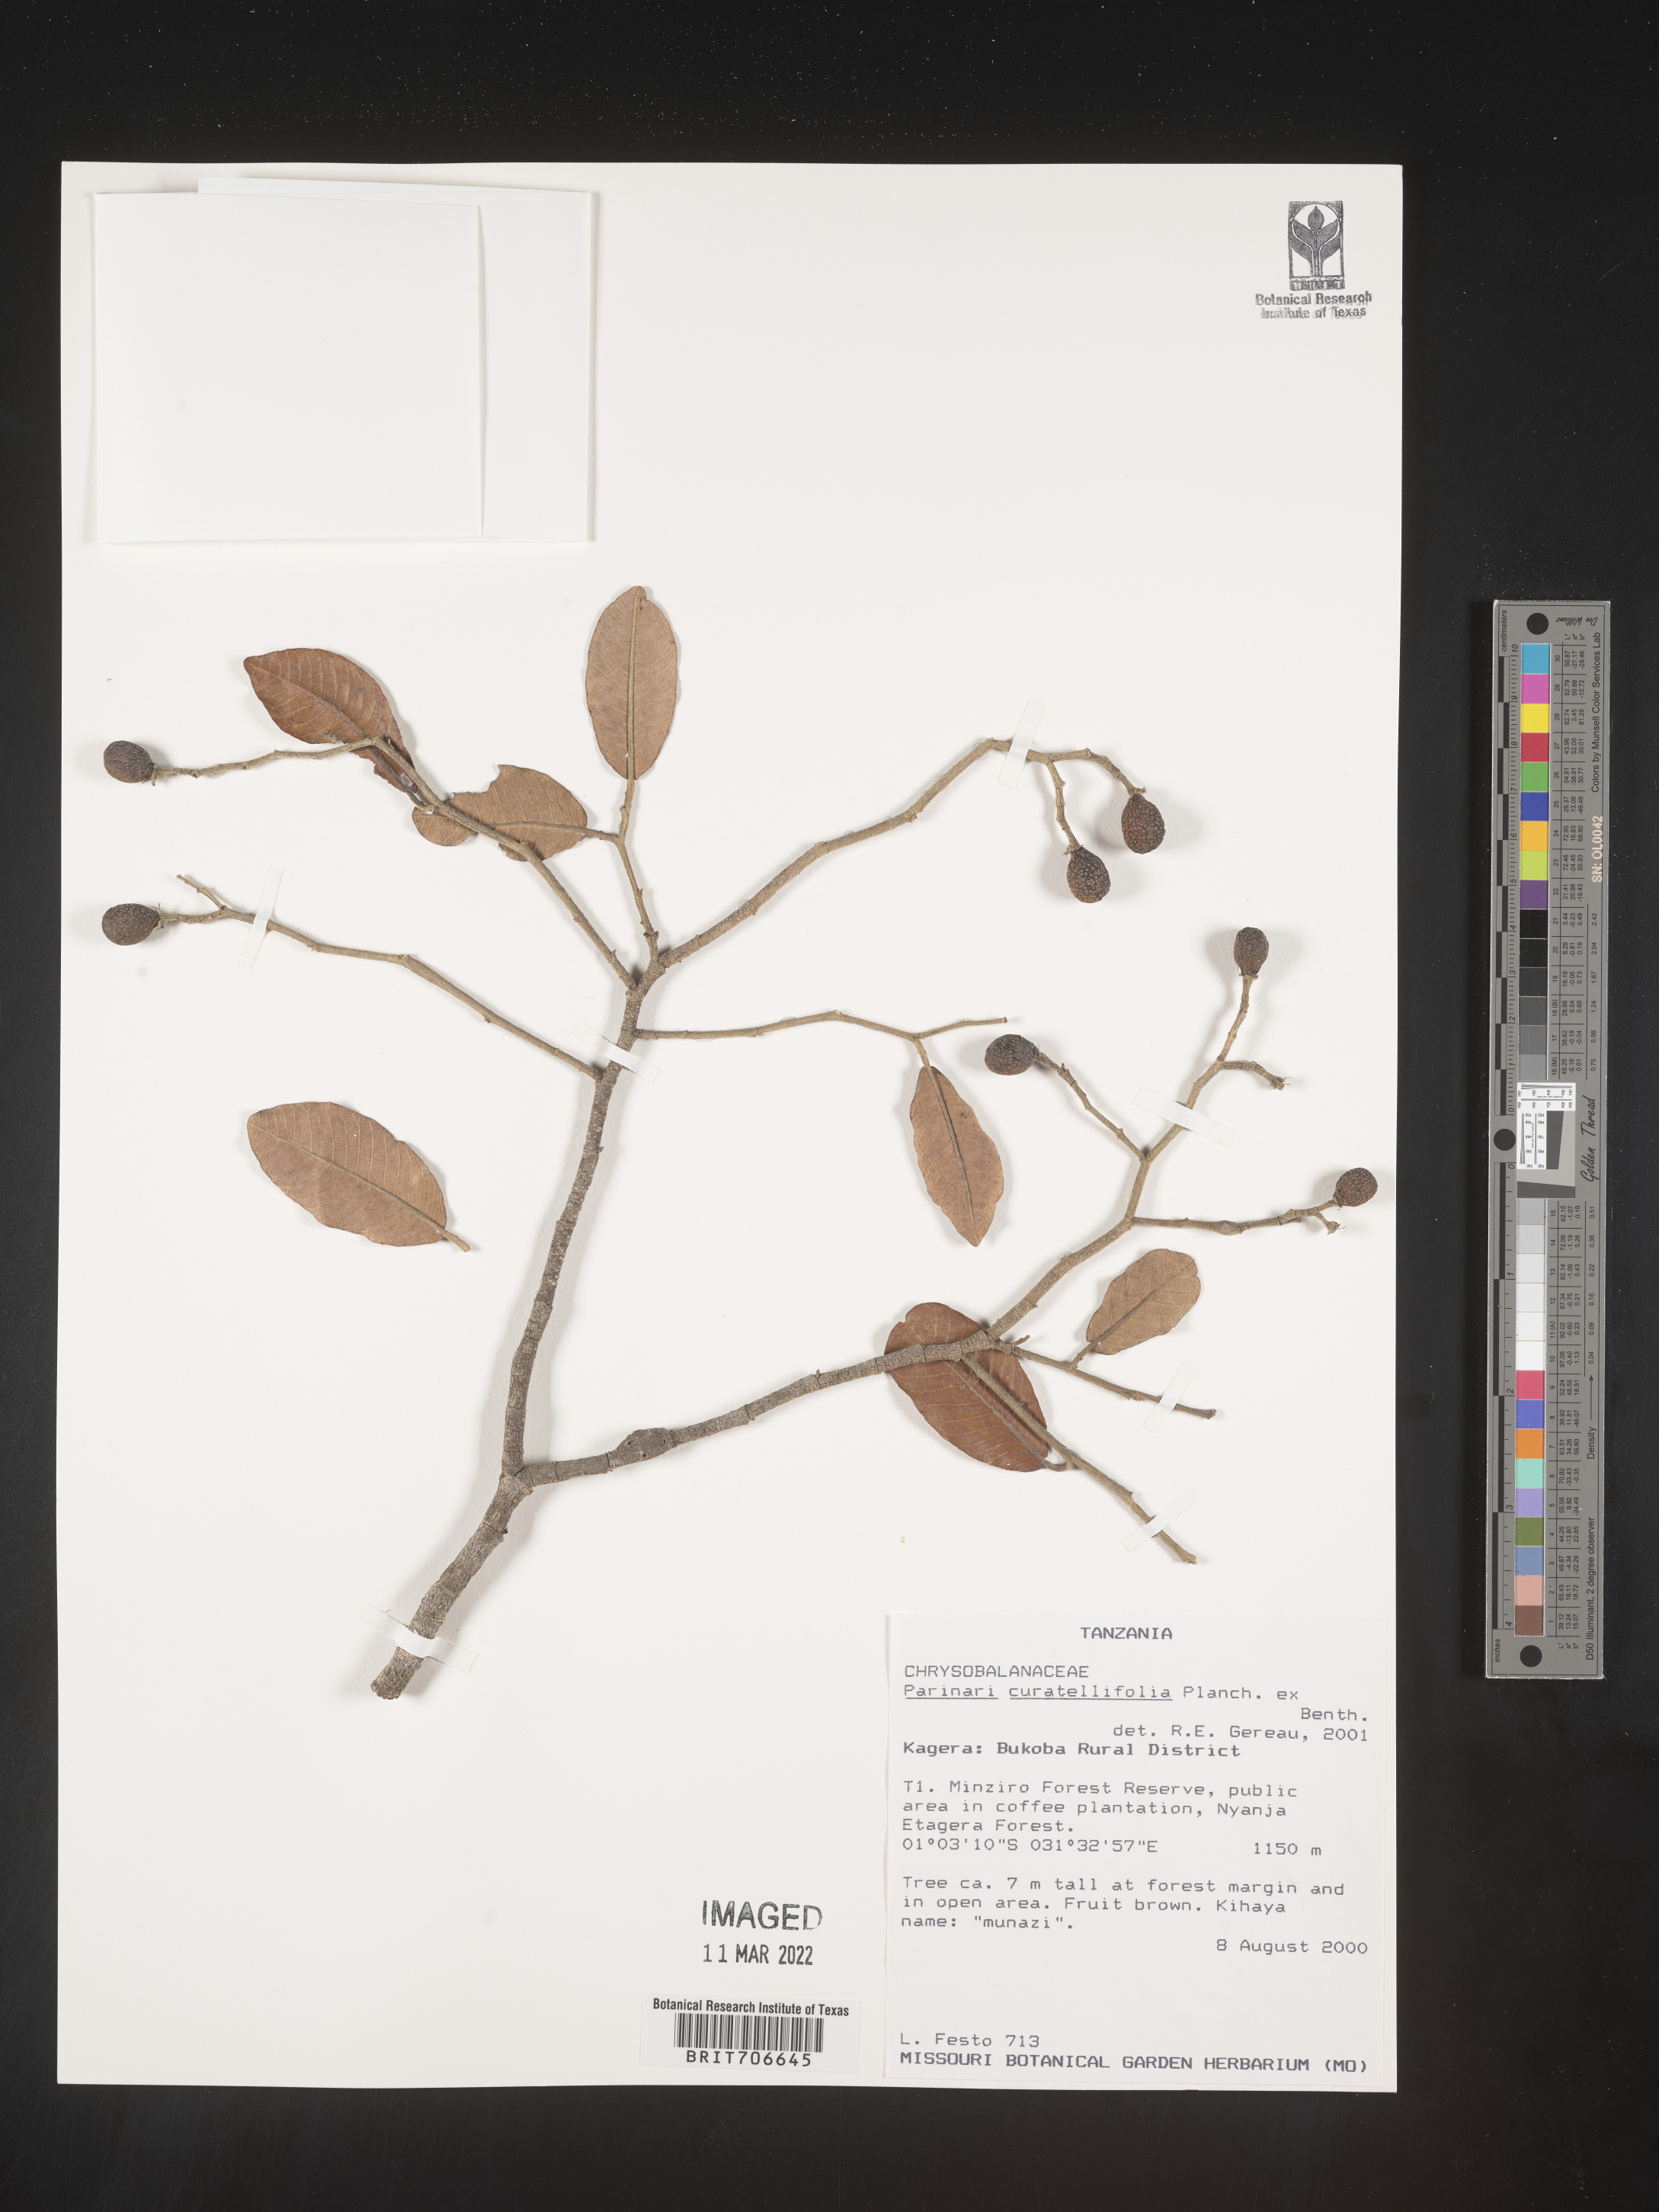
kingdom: Plantae
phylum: Tracheophyta
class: Magnoliopsida
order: Malpighiales
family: Chrysobalanaceae
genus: Parinari
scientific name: Parinari
